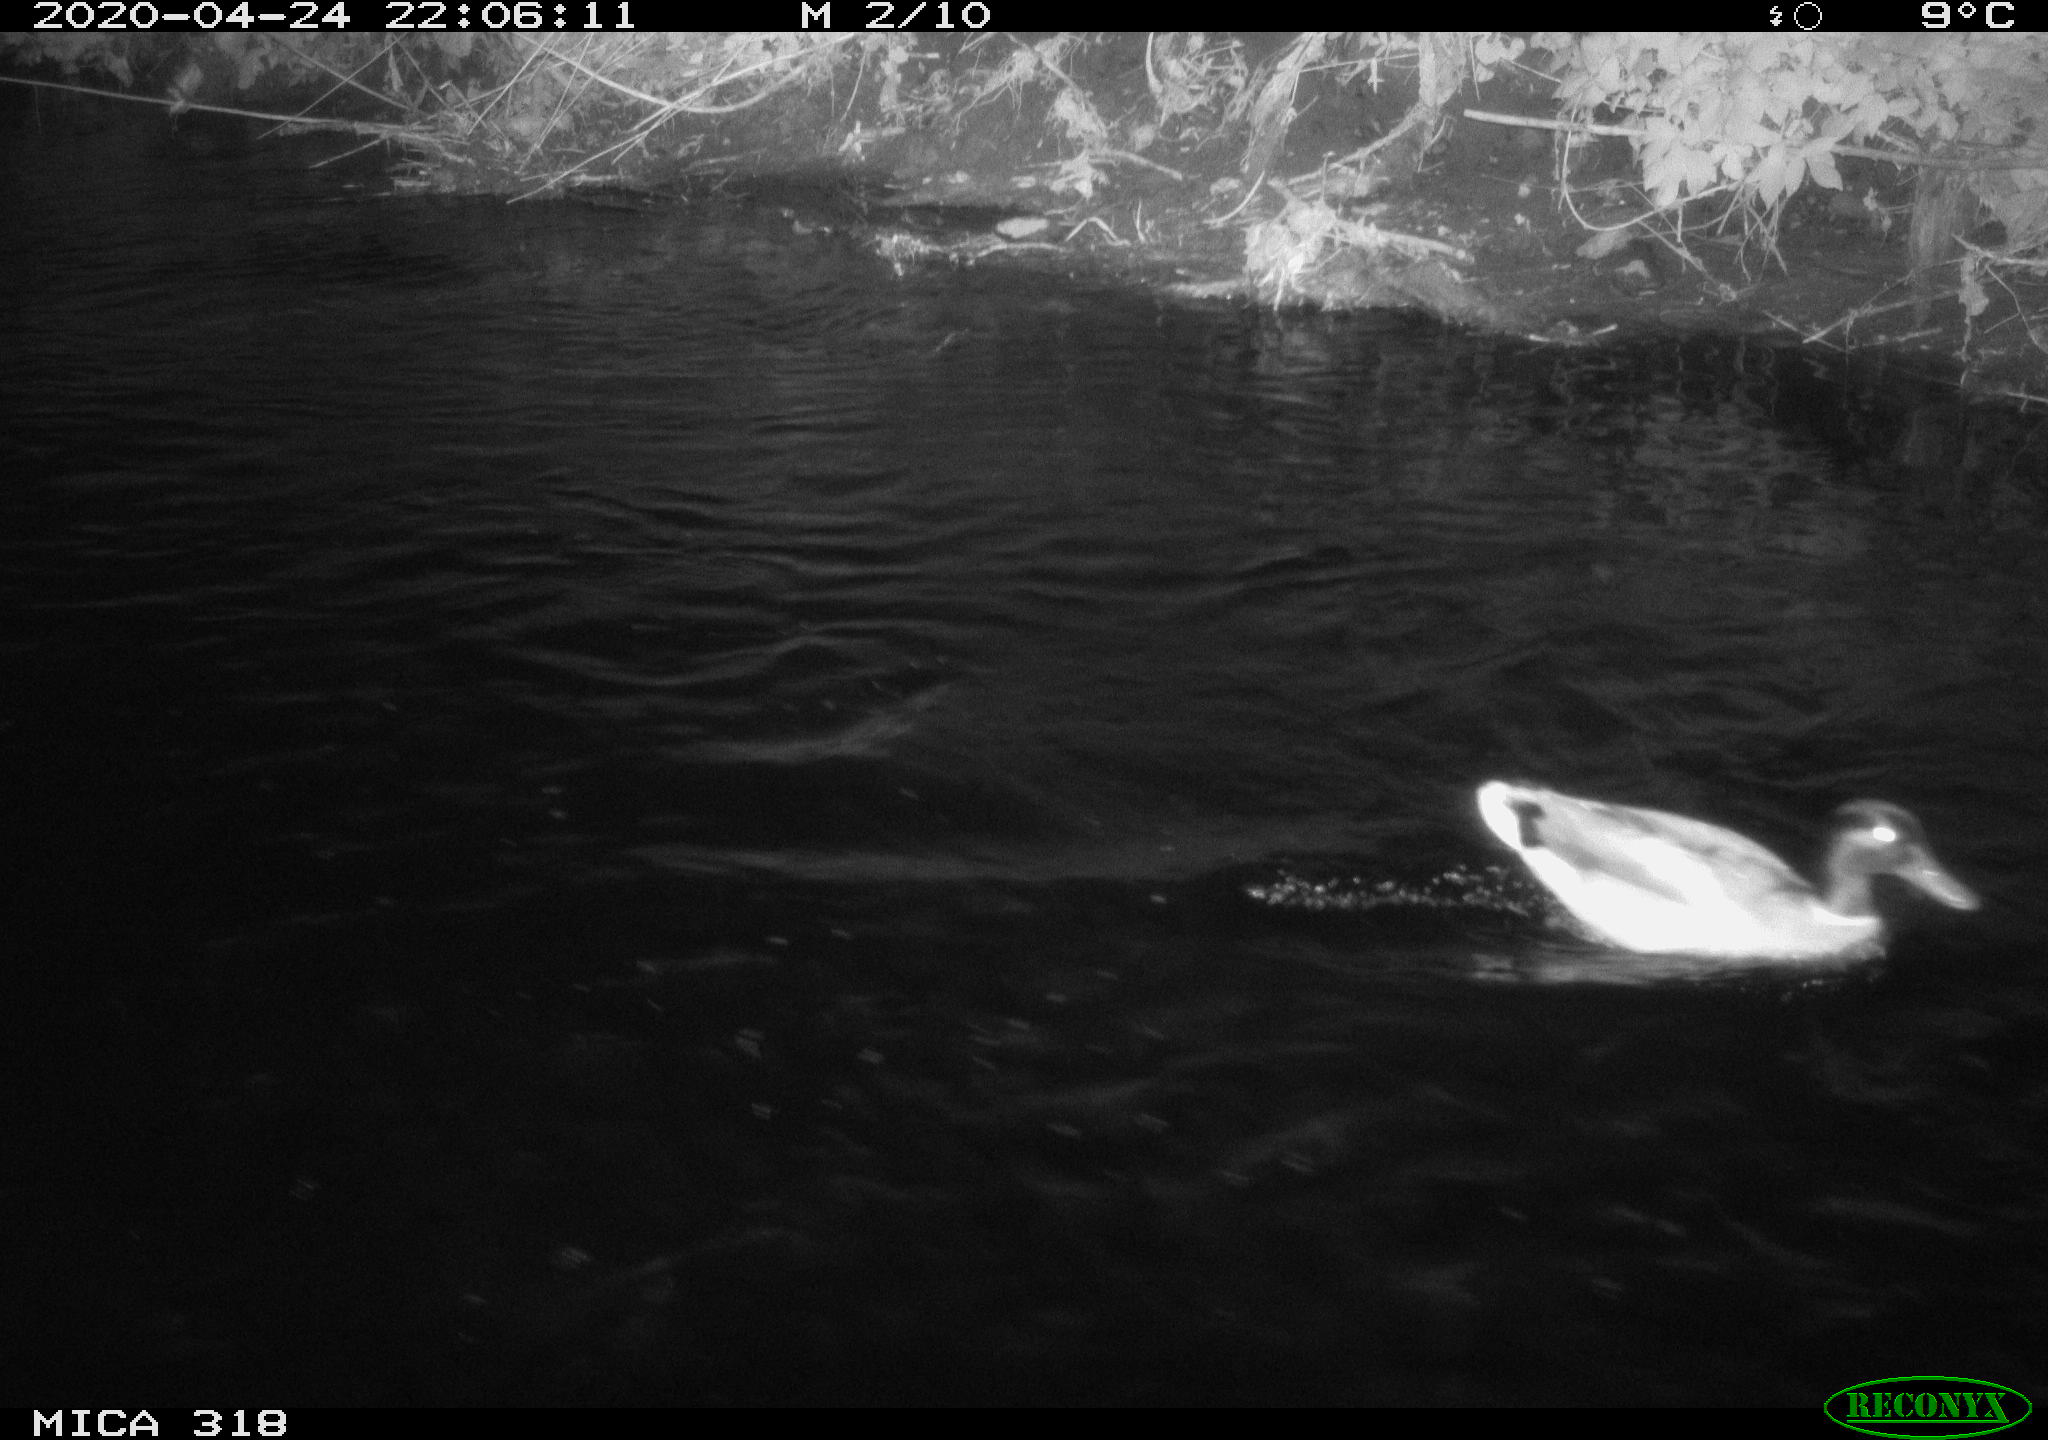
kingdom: Animalia
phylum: Chordata
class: Aves
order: Anseriformes
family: Anatidae
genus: Anas
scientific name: Anas platyrhynchos
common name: Mallard
